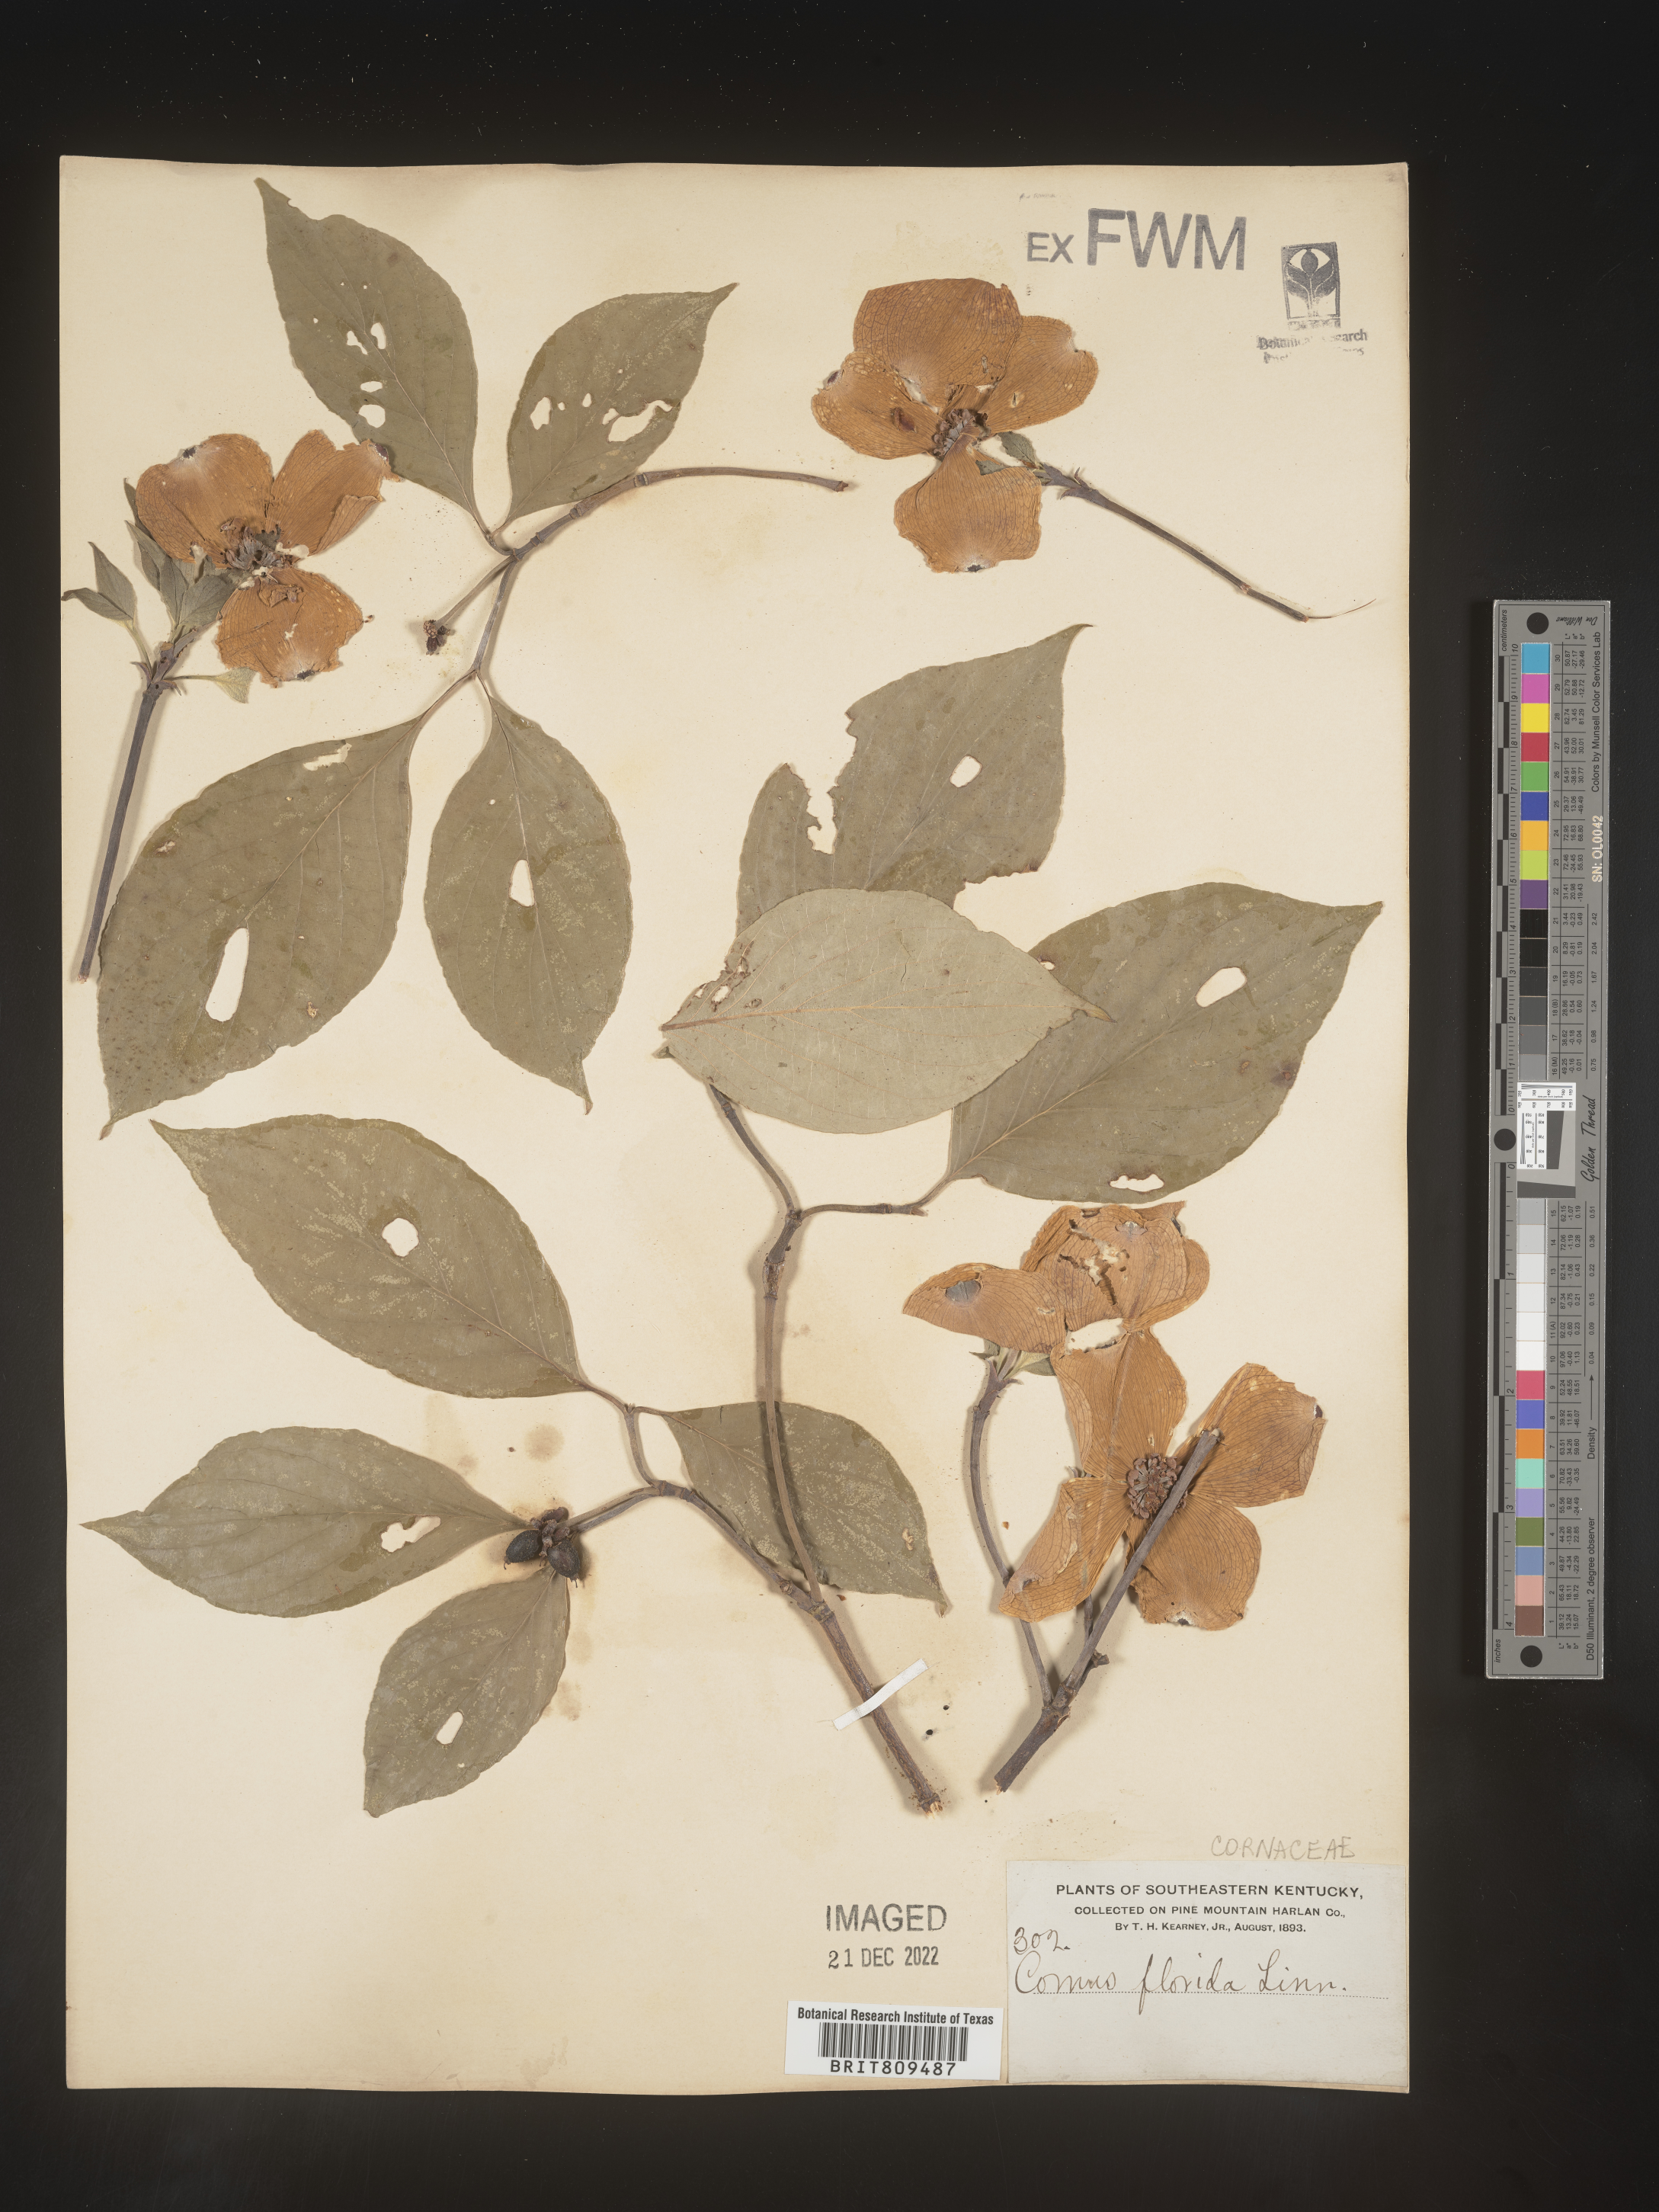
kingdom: Plantae
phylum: Tracheophyta
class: Magnoliopsida
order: Cornales
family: Cornaceae
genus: Cornus
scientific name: Cornus florida
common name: Flowering dogwood
